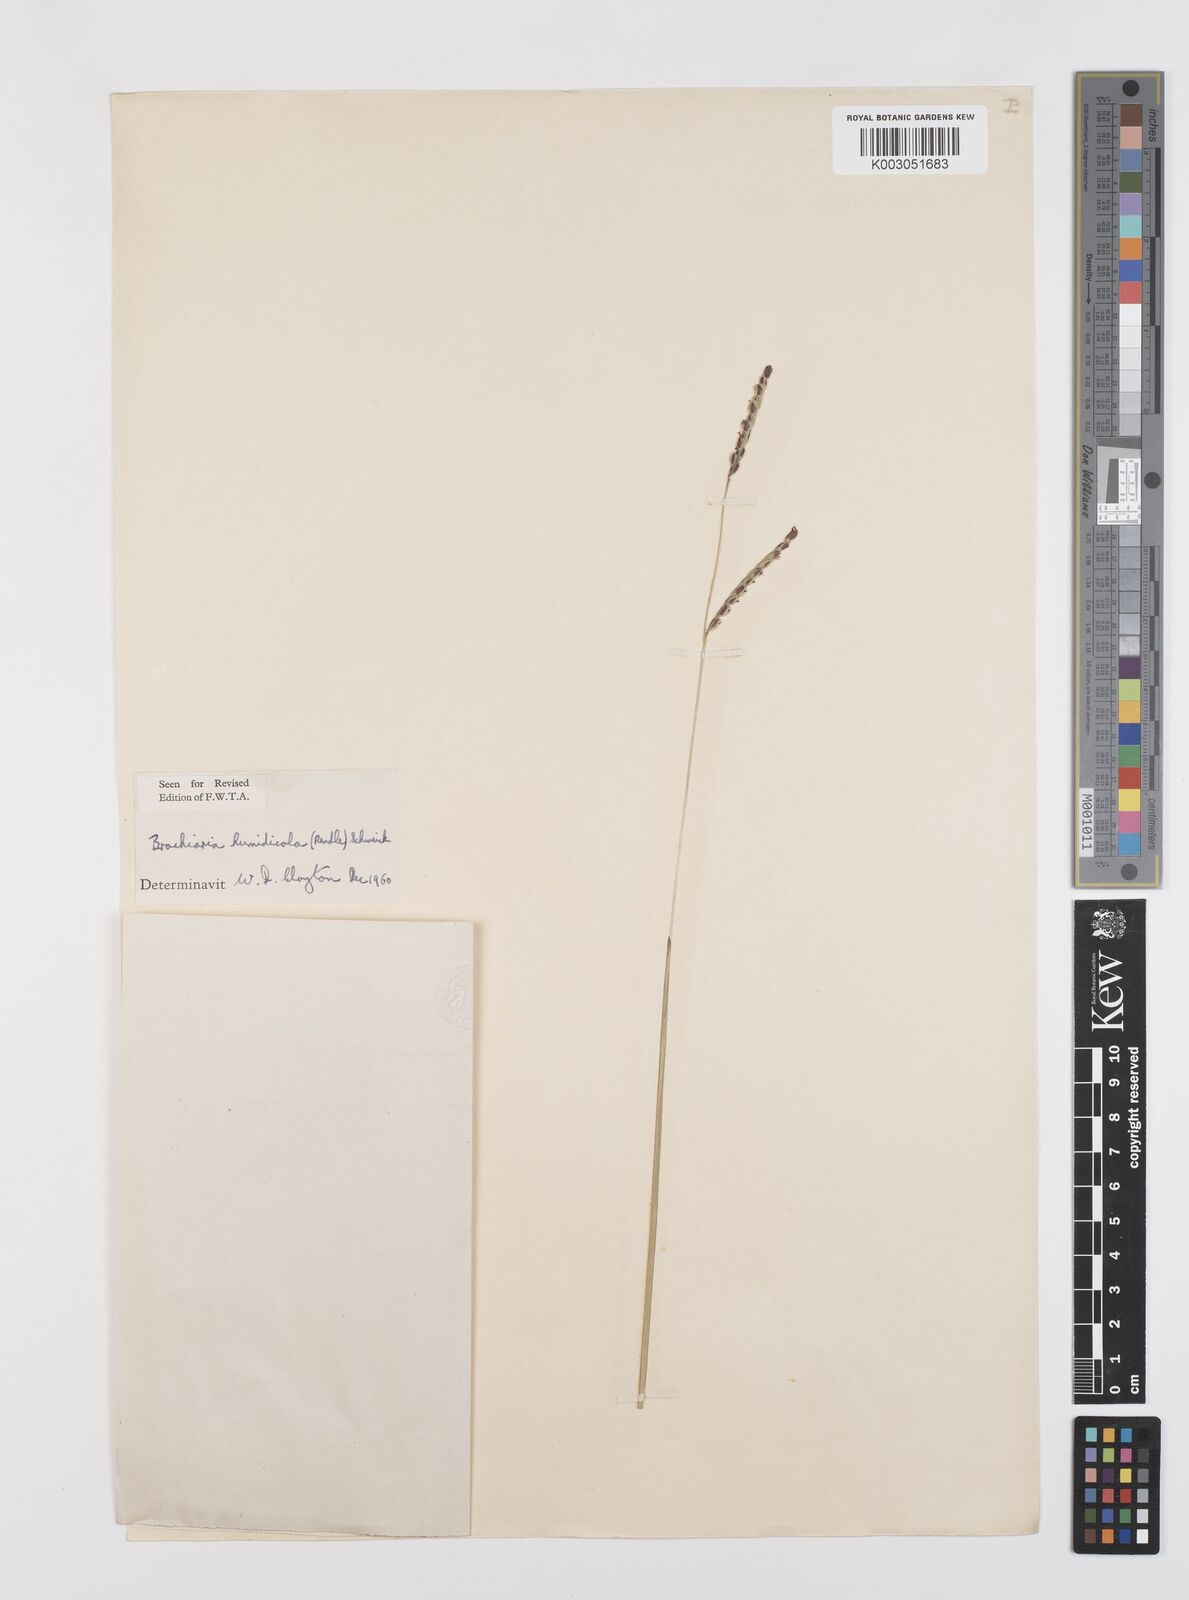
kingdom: Plantae
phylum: Tracheophyta
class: Liliopsida
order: Poales
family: Poaceae
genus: Urochloa
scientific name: Urochloa dictyoneura
